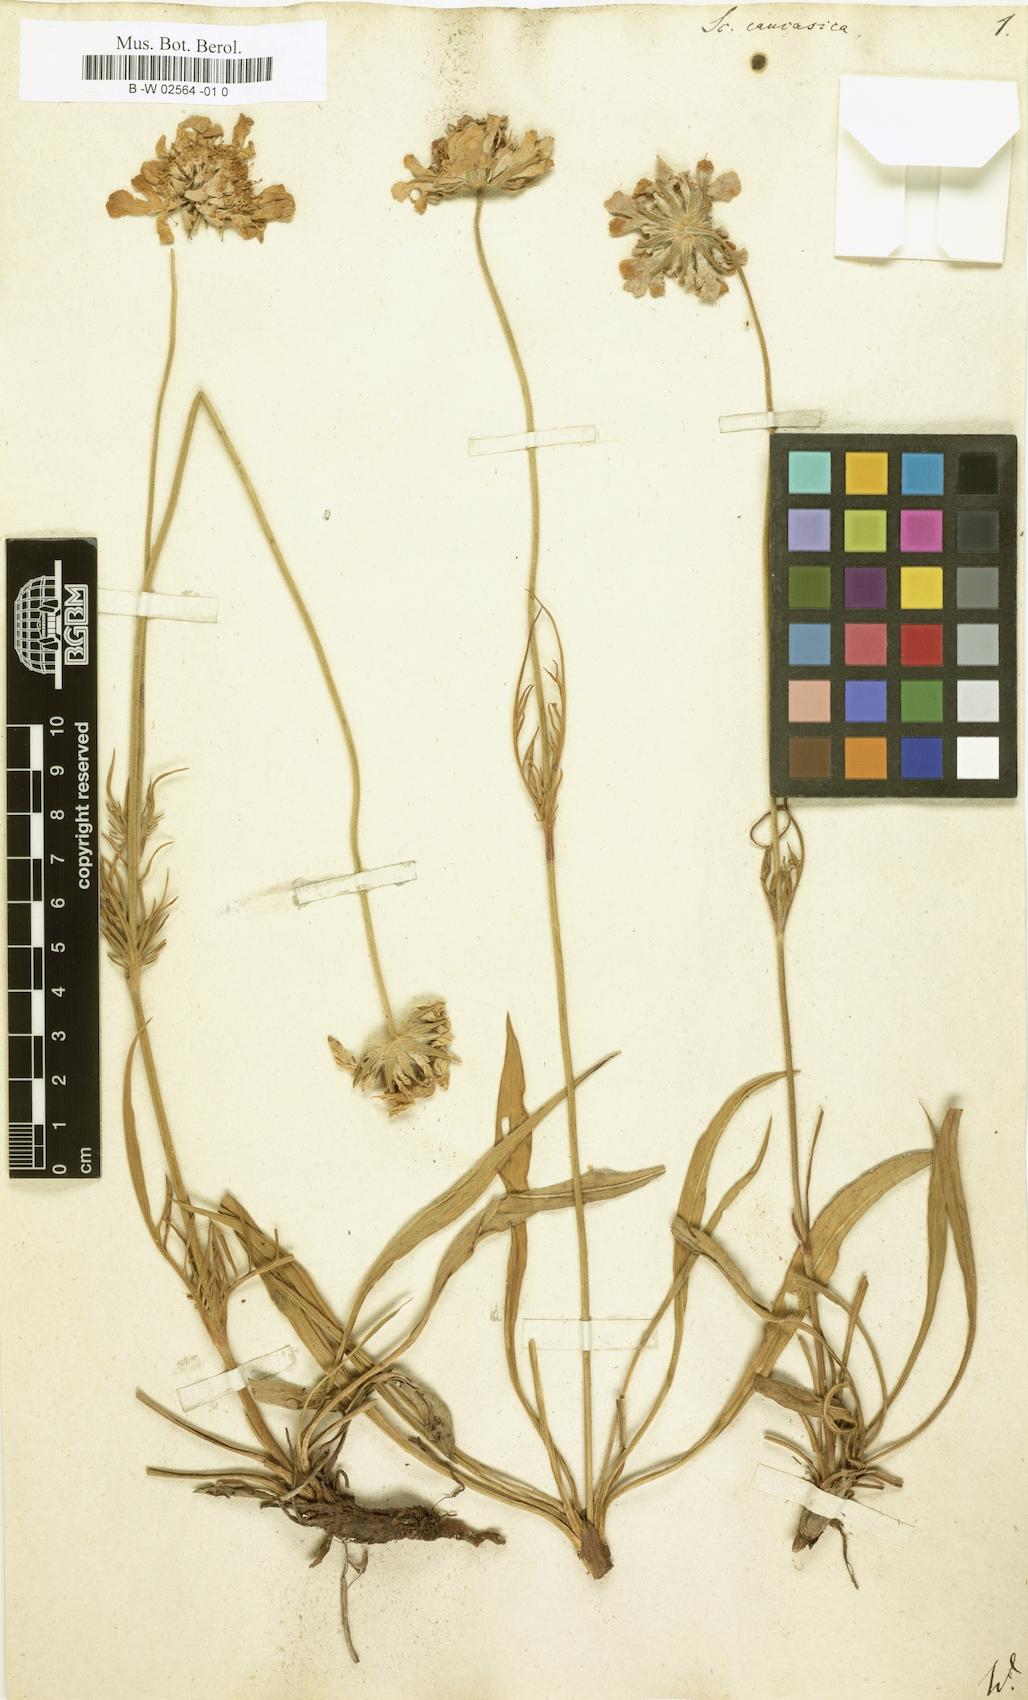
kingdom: Plantae
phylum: Tracheophyta
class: Magnoliopsida
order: Dipsacales
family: Caprifoliaceae
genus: Lomelosia
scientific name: Lomelosia caucasica
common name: Pincushion-flower
